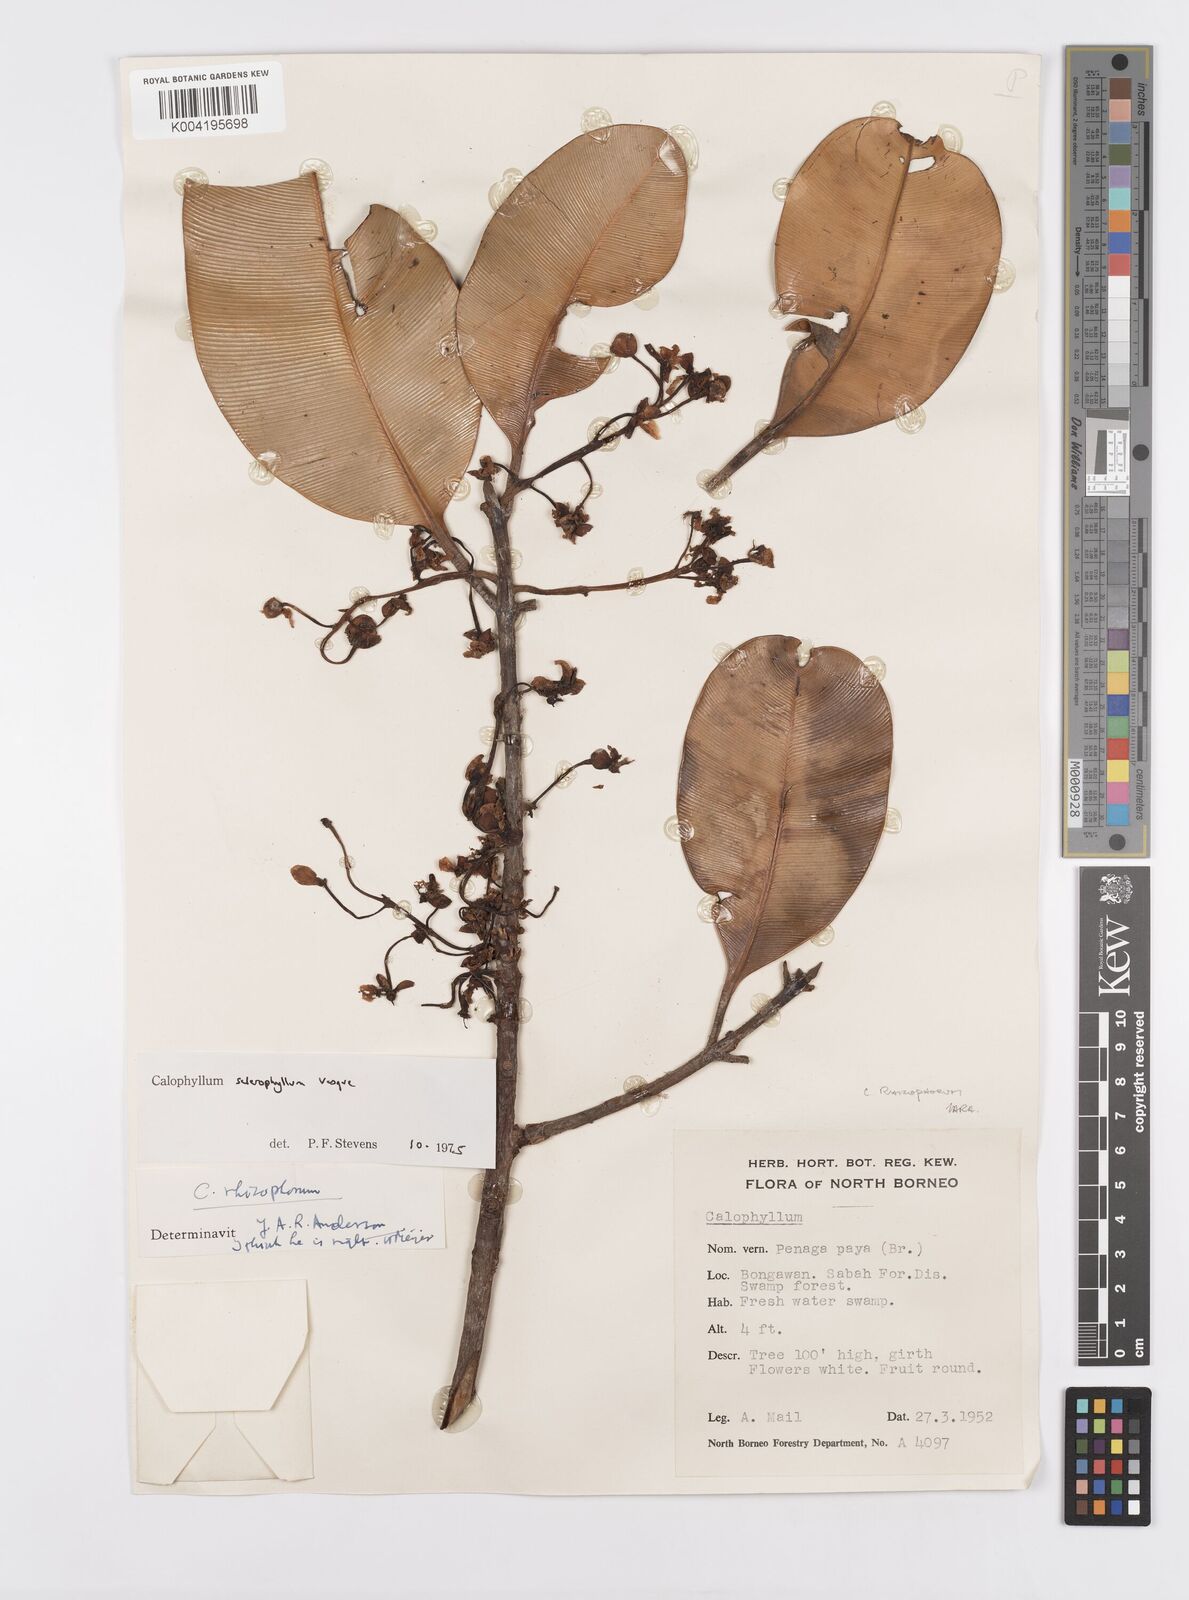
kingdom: Plantae
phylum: Tracheophyta
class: Magnoliopsida
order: Malpighiales
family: Calophyllaceae
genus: Calophyllum
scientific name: Calophyllum sclerophyllum
